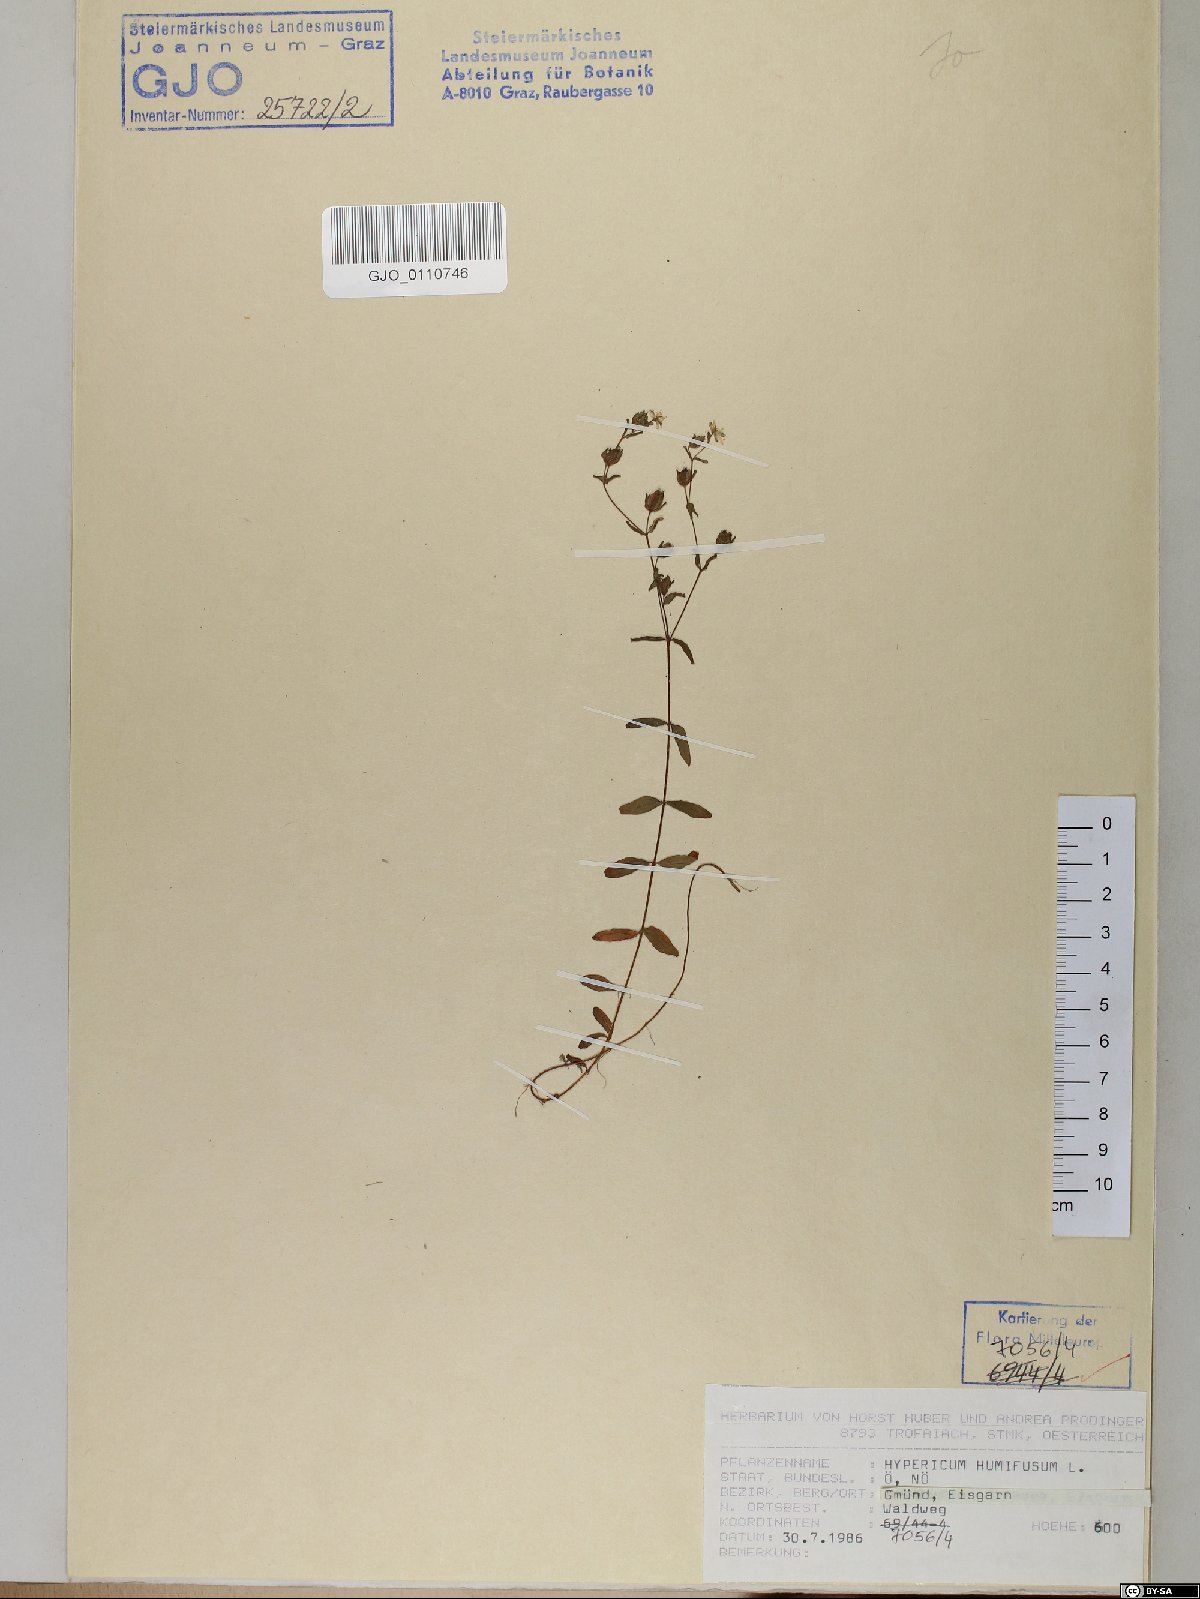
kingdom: Plantae
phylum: Tracheophyta
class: Magnoliopsida
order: Malpighiales
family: Hypericaceae
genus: Hypericum
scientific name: Hypericum humifusum
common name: Trailing st. john's-wort
